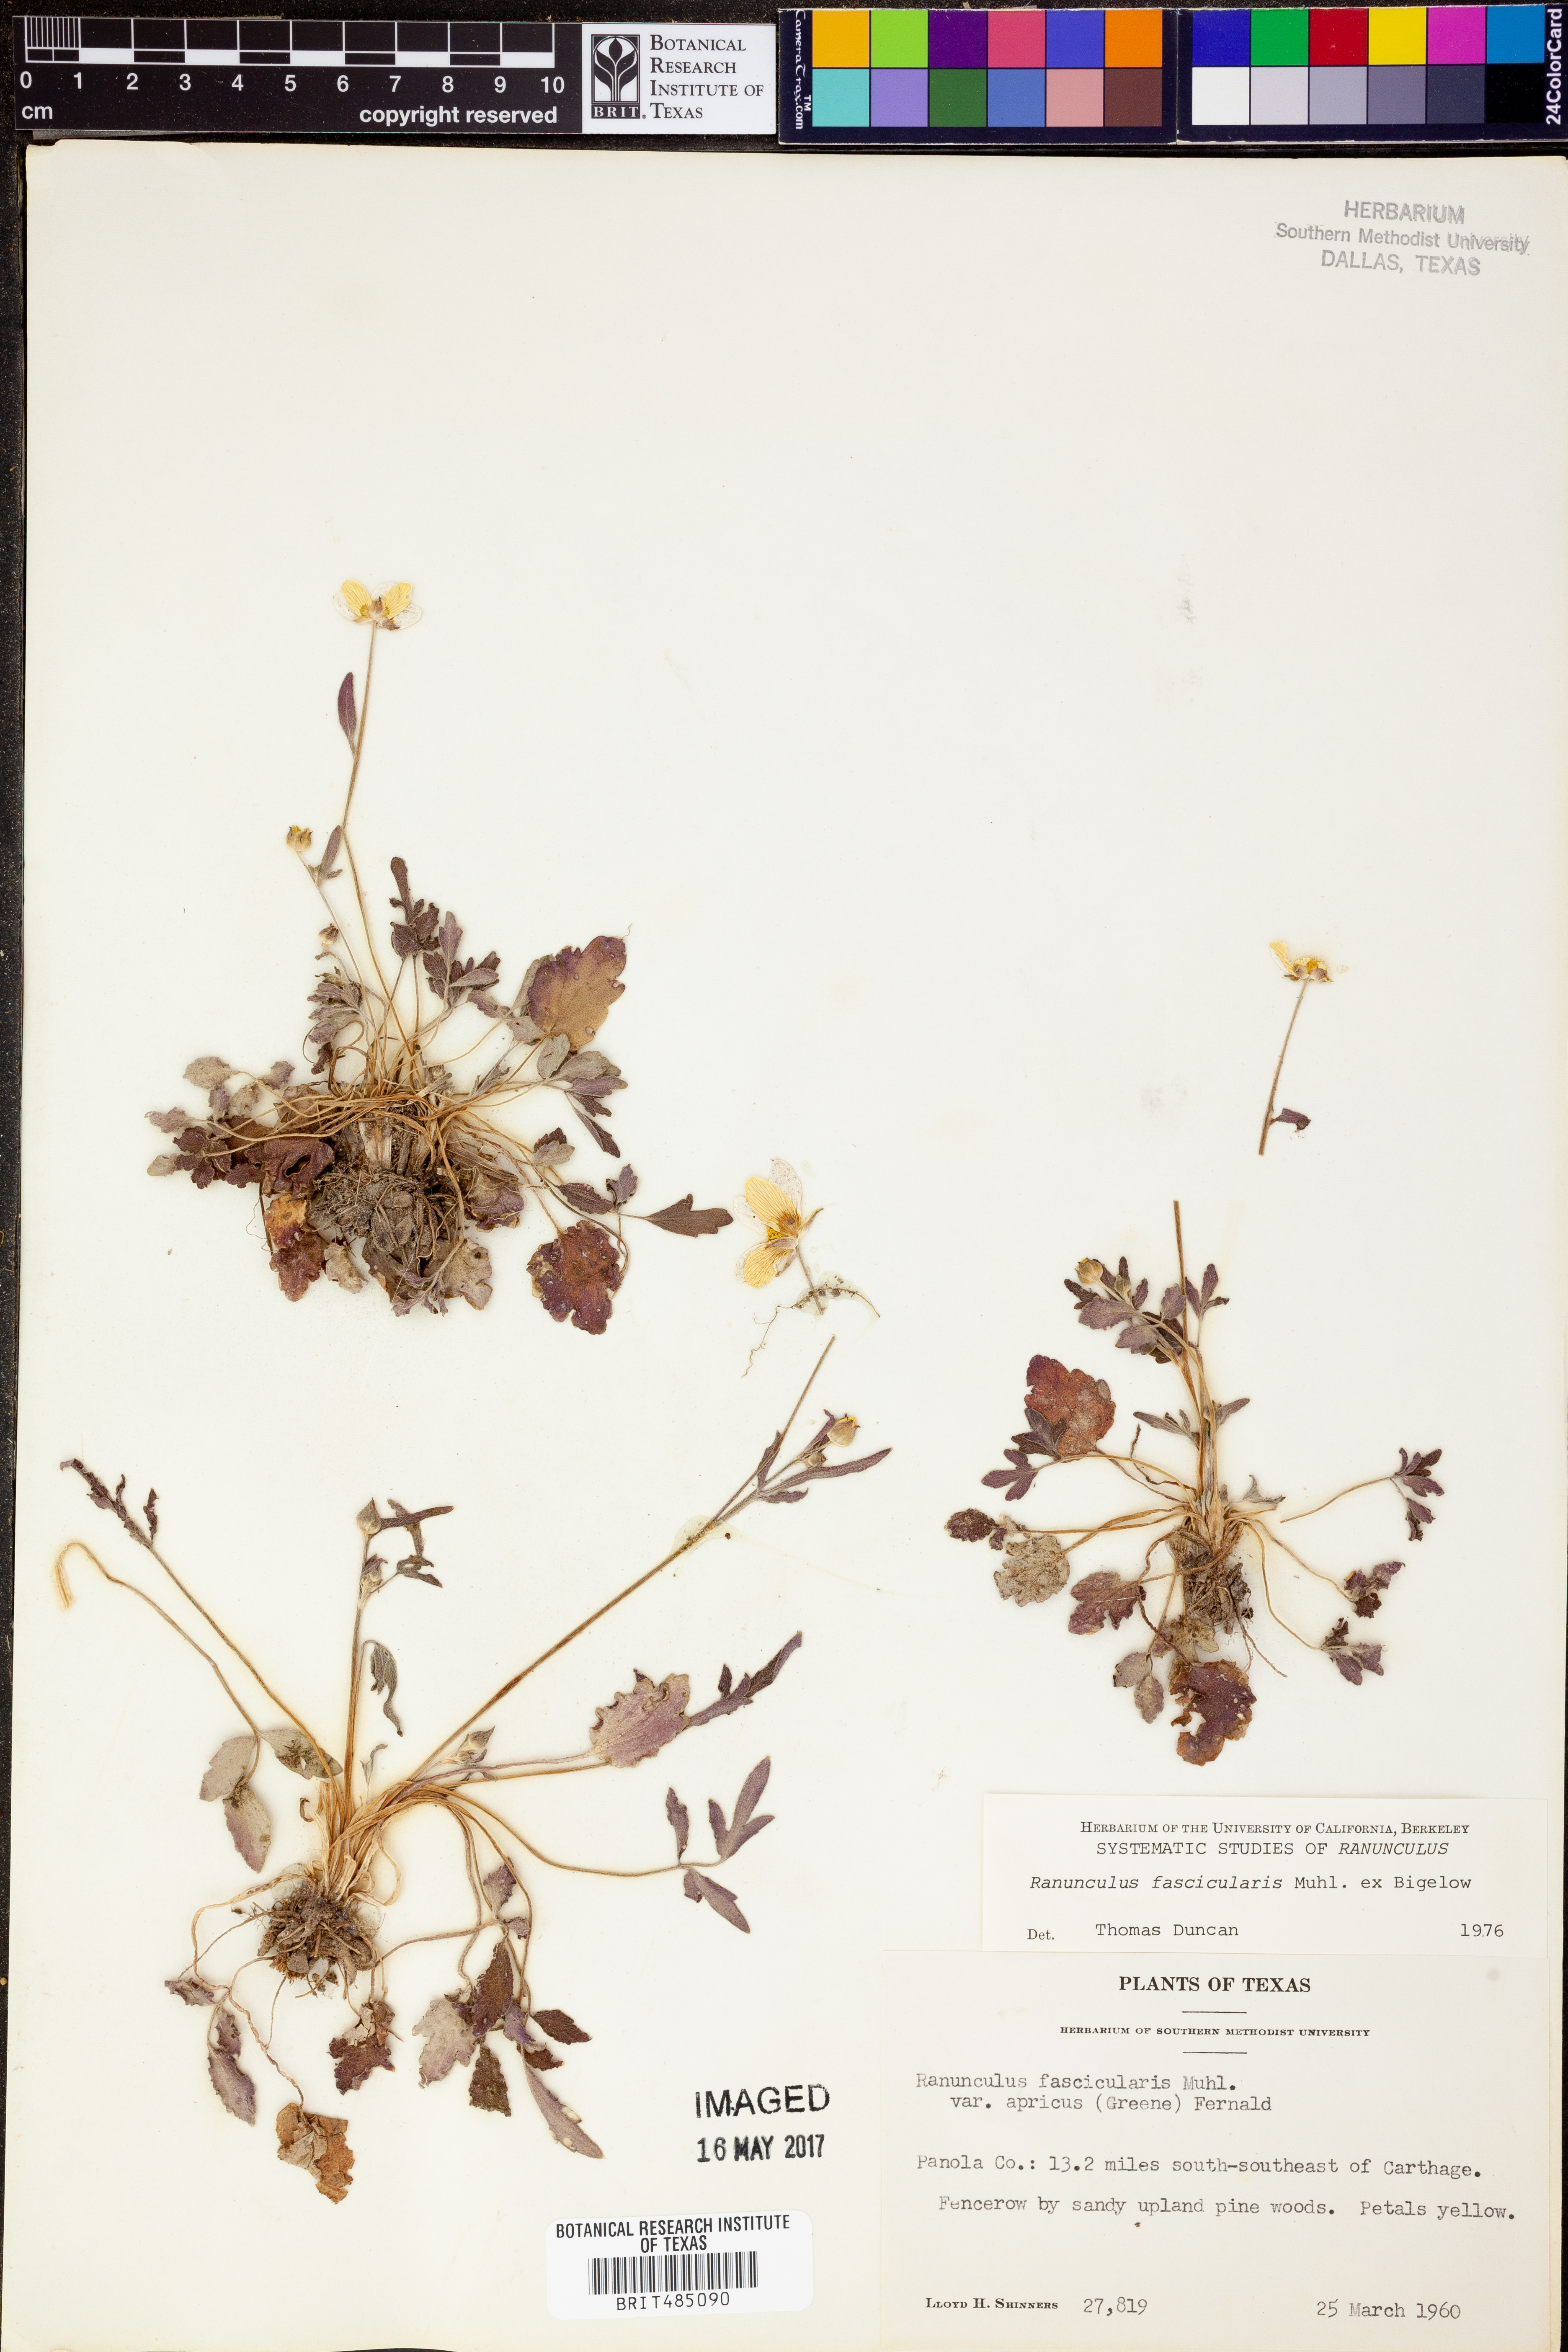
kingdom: Plantae
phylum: Tracheophyta
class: Magnoliopsida
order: Ranunculales
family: Ranunculaceae
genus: Ranunculus
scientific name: Ranunculus fascicularis
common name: Early buttercup
